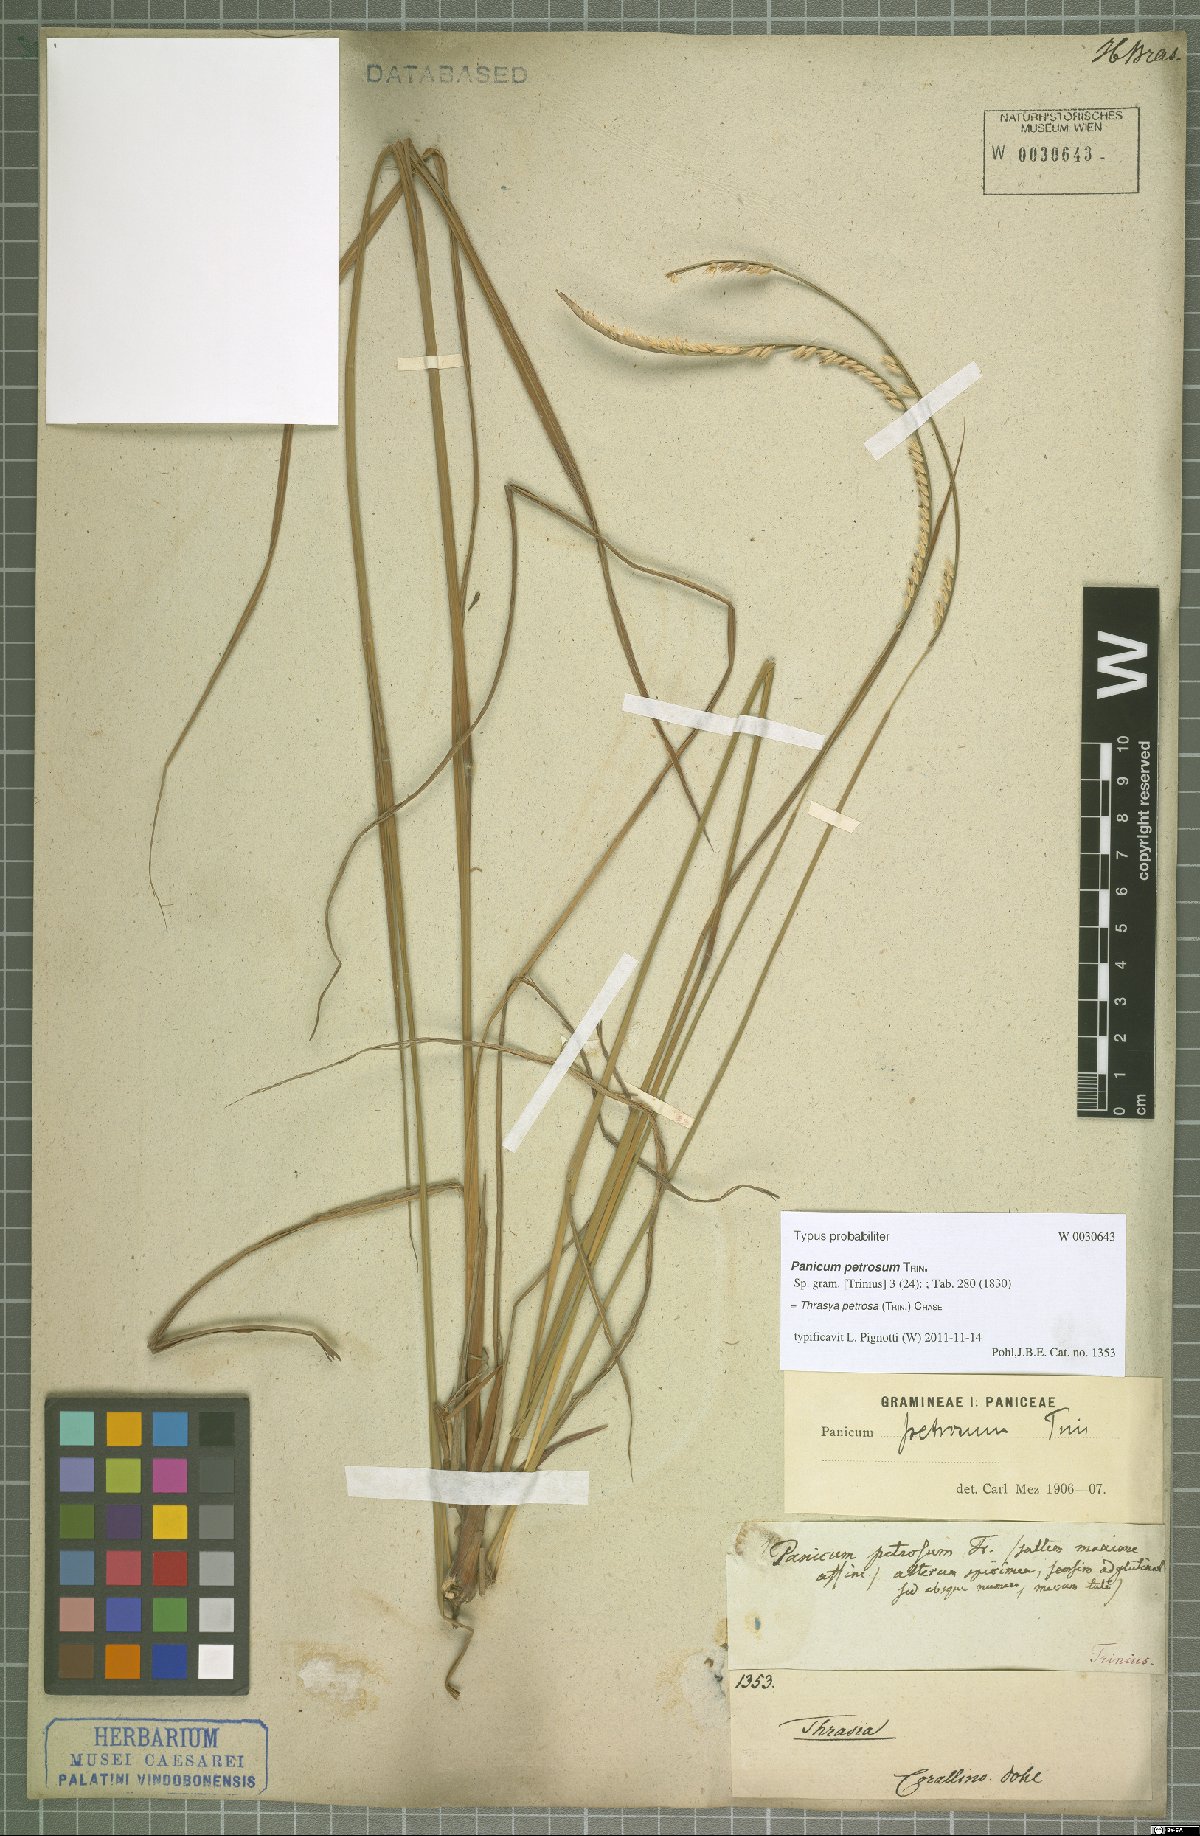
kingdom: Plantae
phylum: Tracheophyta
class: Liliopsida
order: Poales
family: Poaceae
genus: Paspalum
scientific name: Paspalum foliiforme
